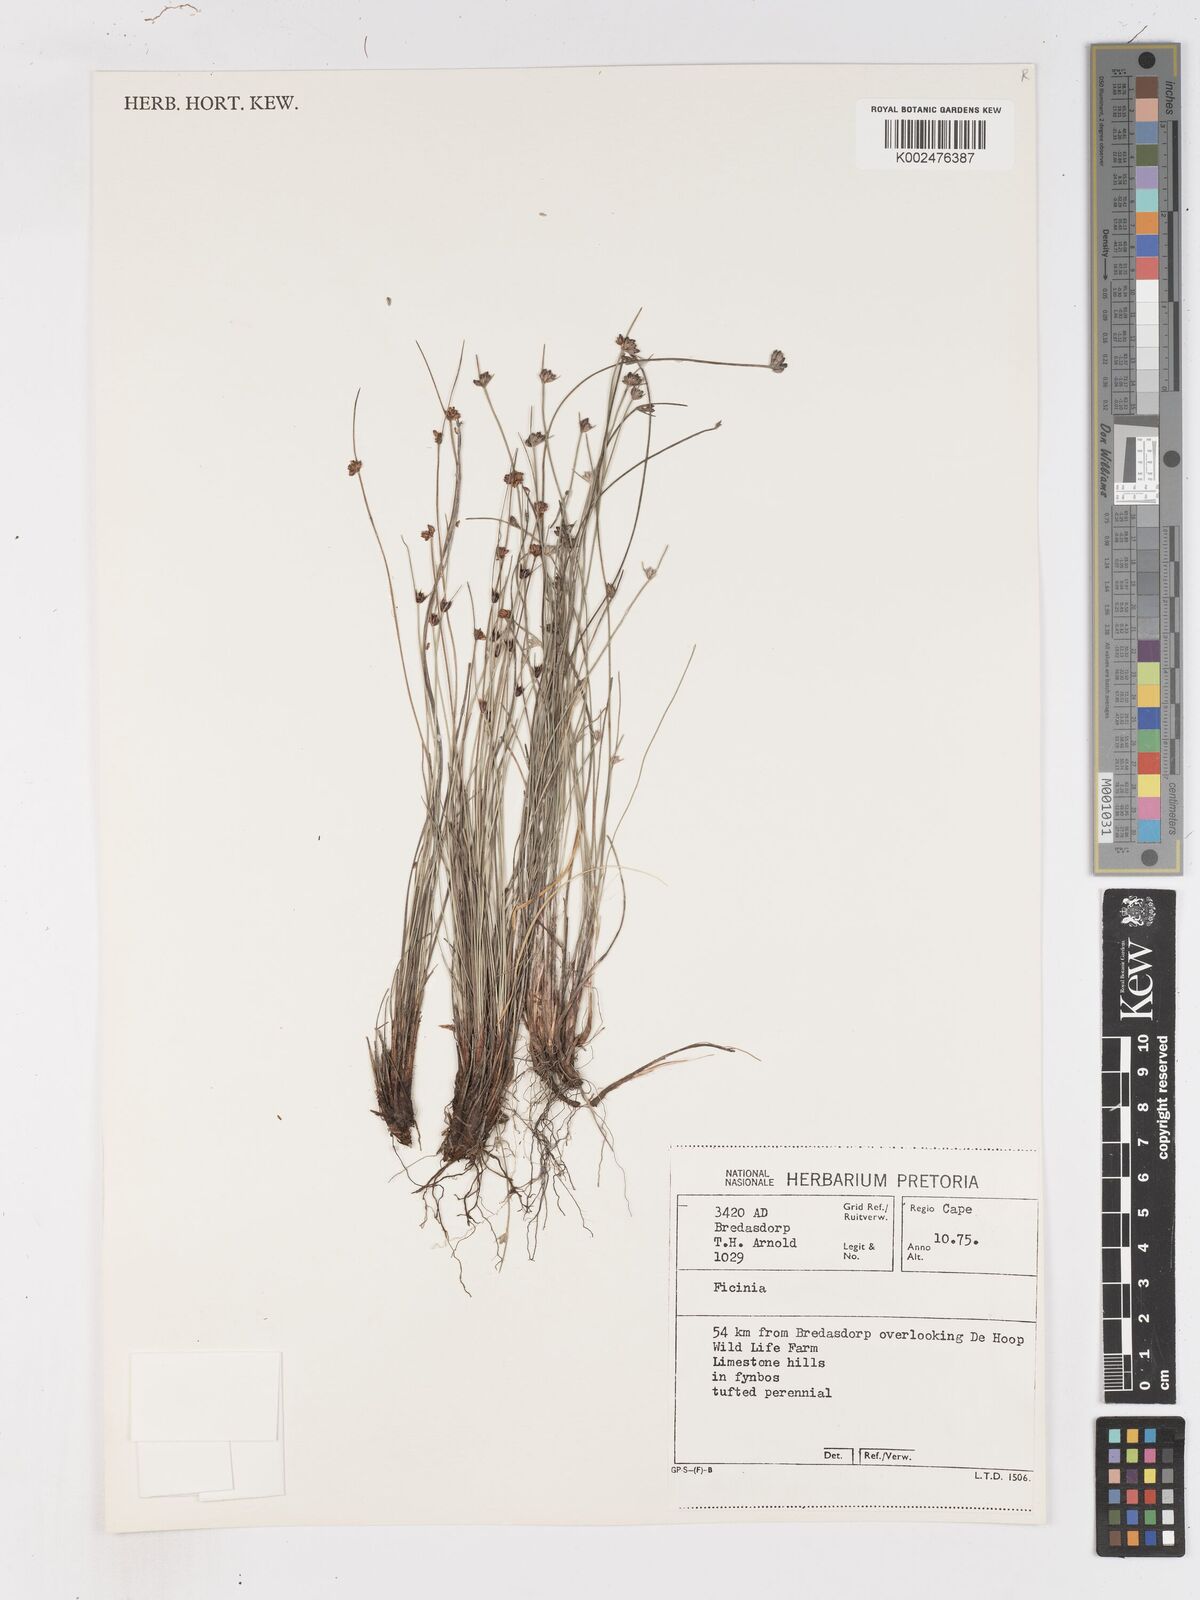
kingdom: Plantae
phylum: Tracheophyta
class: Liliopsida
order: Poales
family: Cyperaceae
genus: Ficinia
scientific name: Ficinia filiformis
